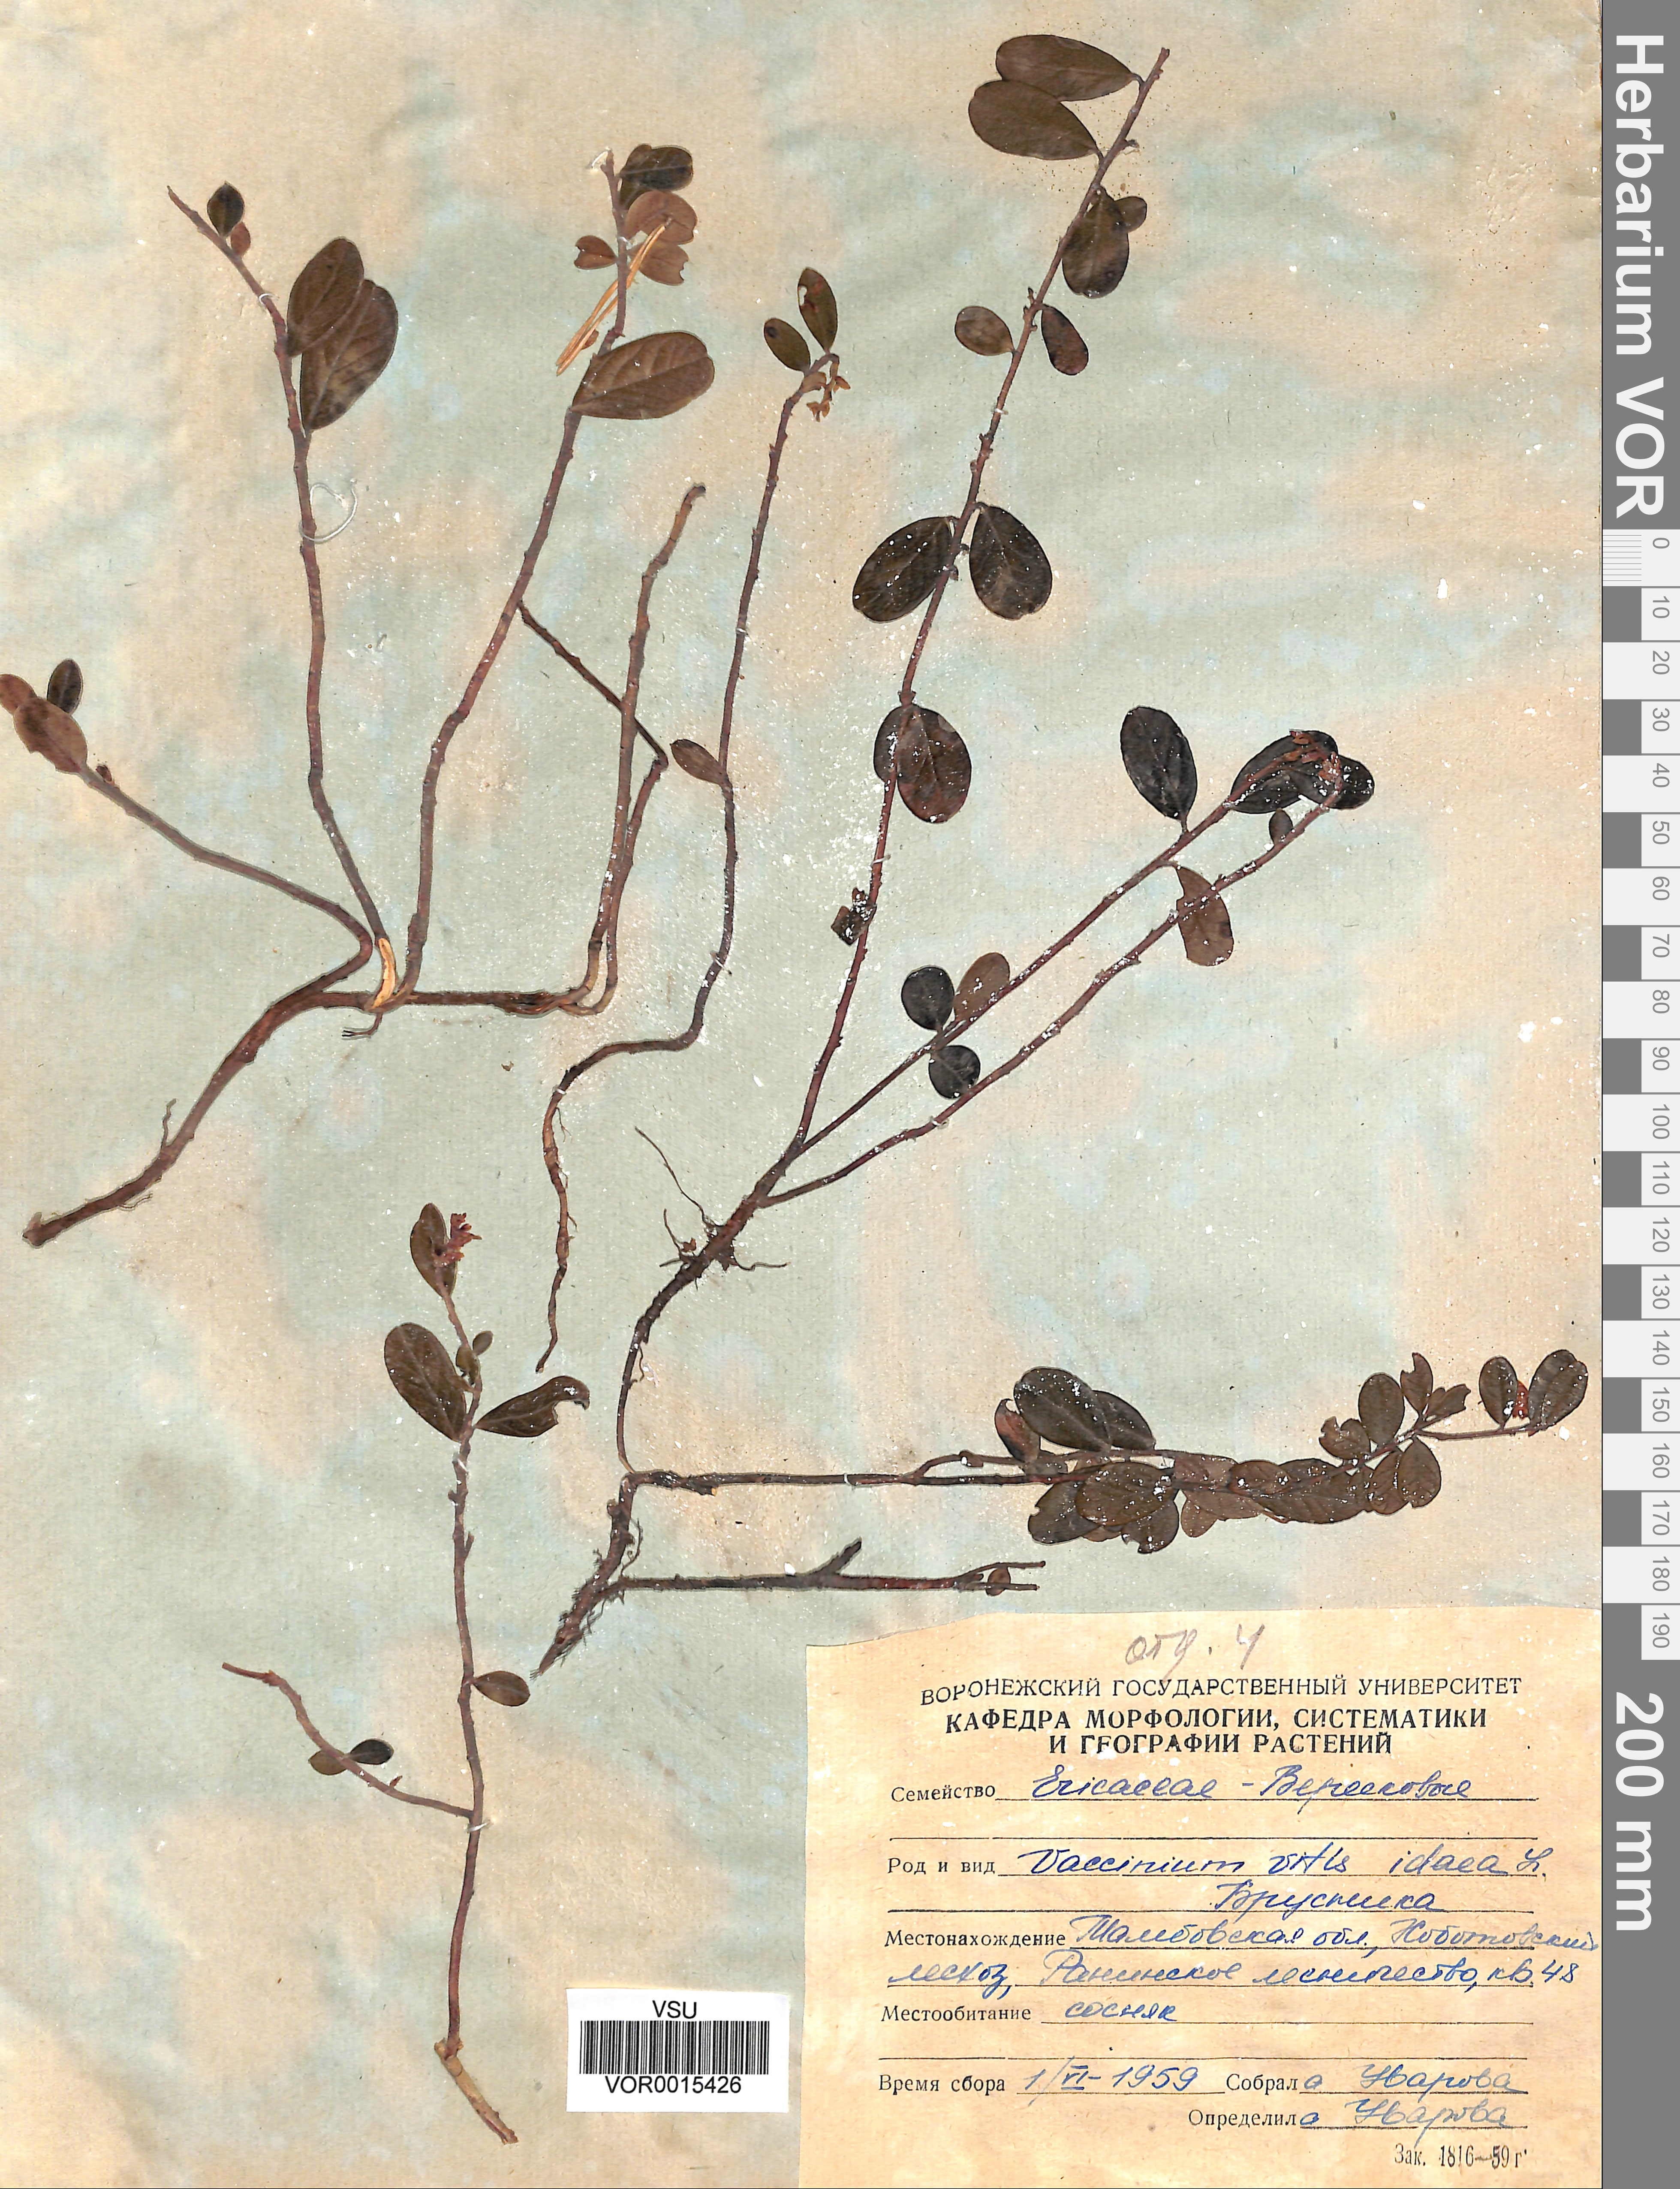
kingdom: Plantae
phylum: Tracheophyta
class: Magnoliopsida
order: Ericales
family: Ericaceae
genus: Vaccinium
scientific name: Vaccinium vitis-idaea
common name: Cowberry
